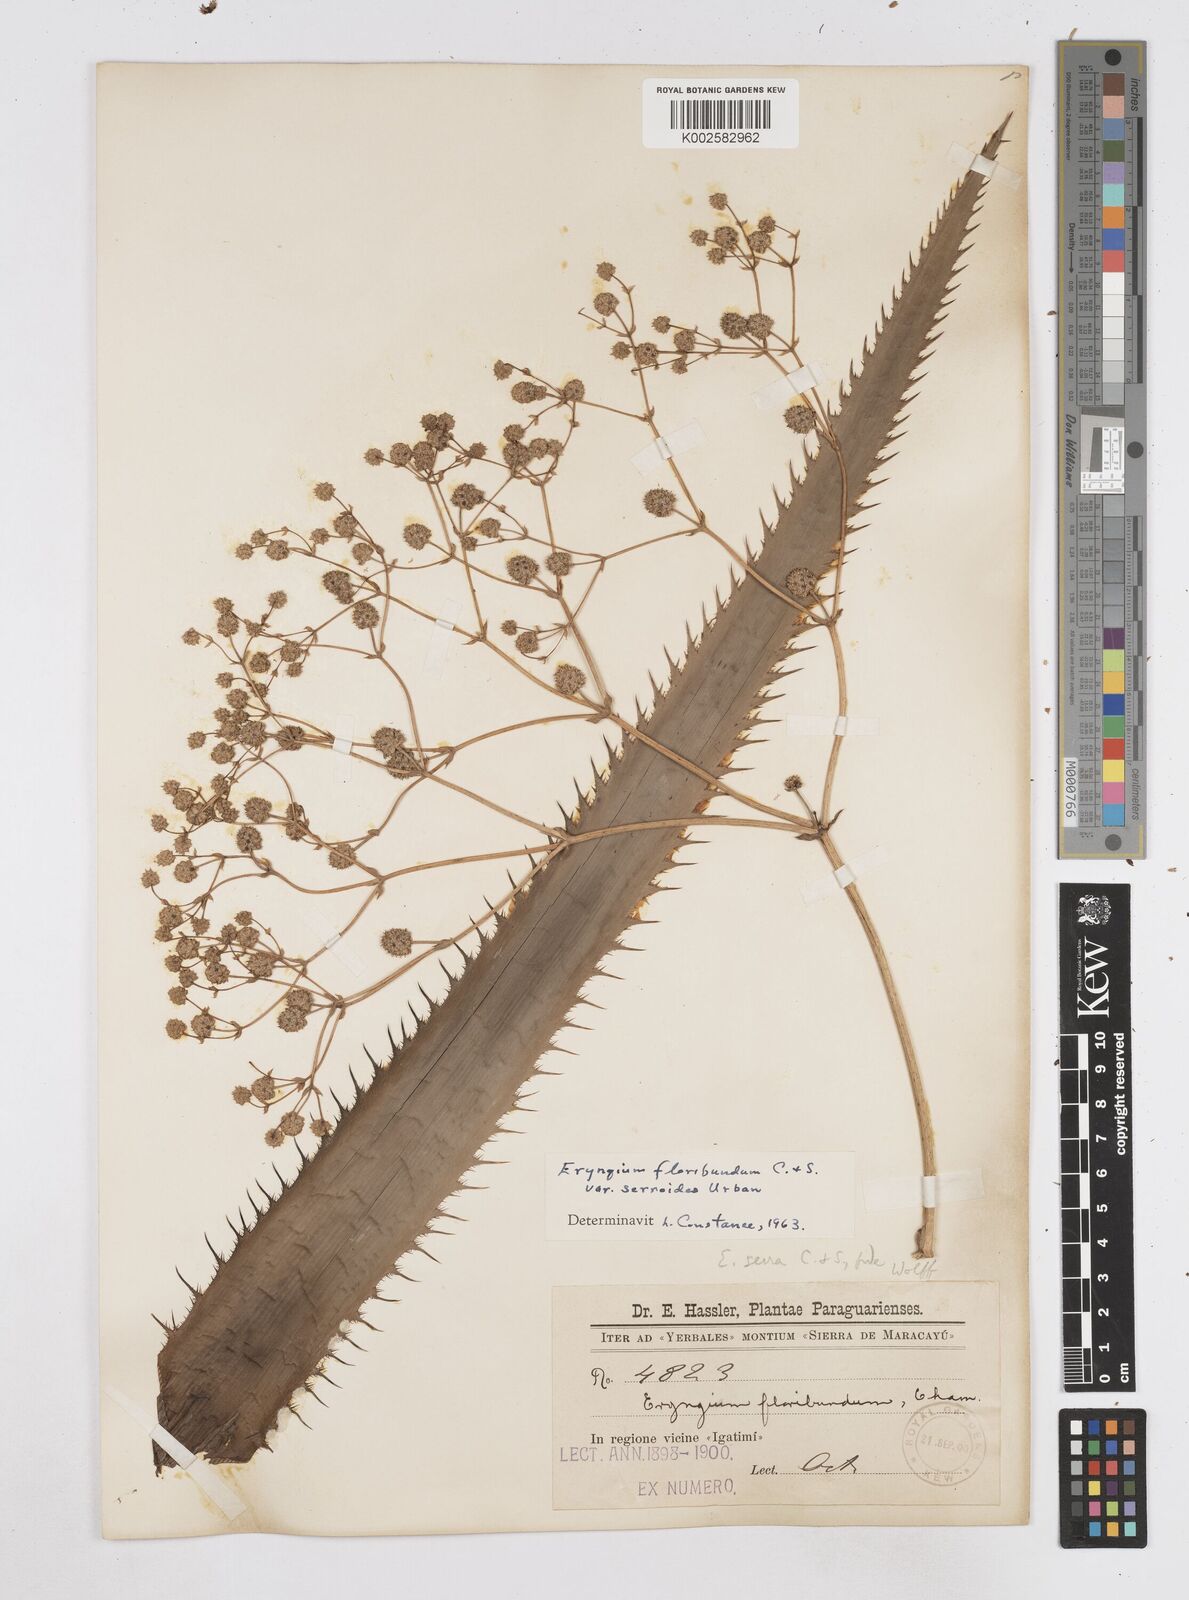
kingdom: Plantae
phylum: Tracheophyta
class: Magnoliopsida
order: Apiales
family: Apiaceae
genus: Eryngium
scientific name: Eryngium floribundum
